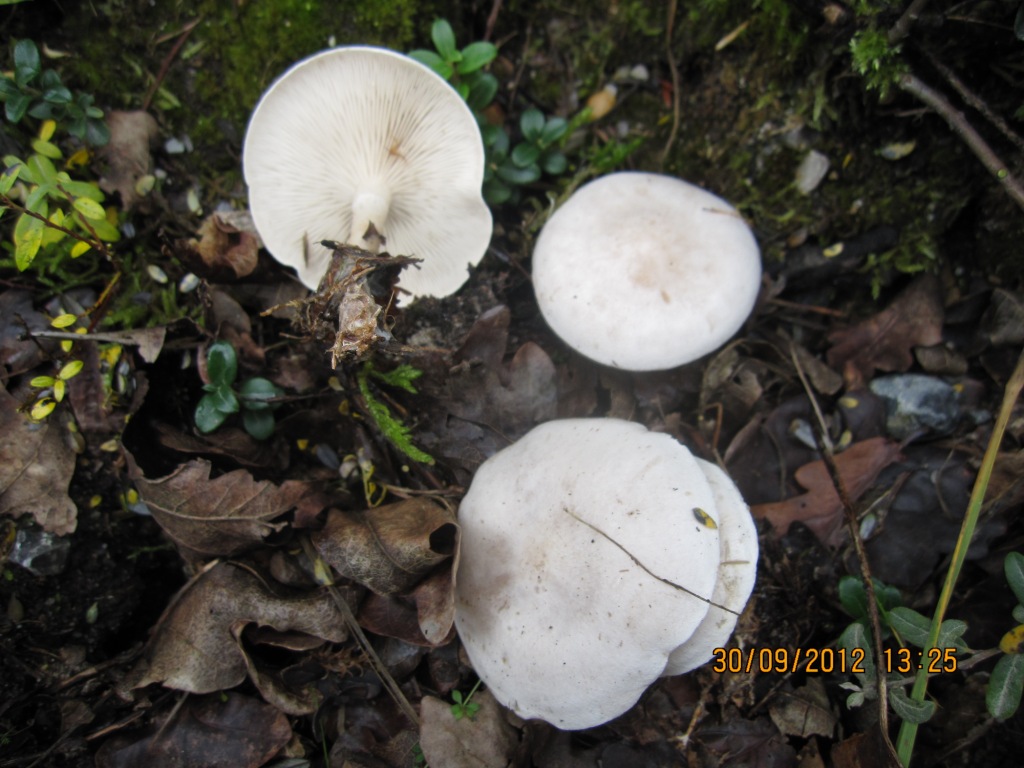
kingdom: Fungi
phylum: Basidiomycota
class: Agaricomycetes
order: Agaricales
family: Tricholomataceae
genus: Clitocybe
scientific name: Clitocybe phyllophila
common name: løv-tragthat
